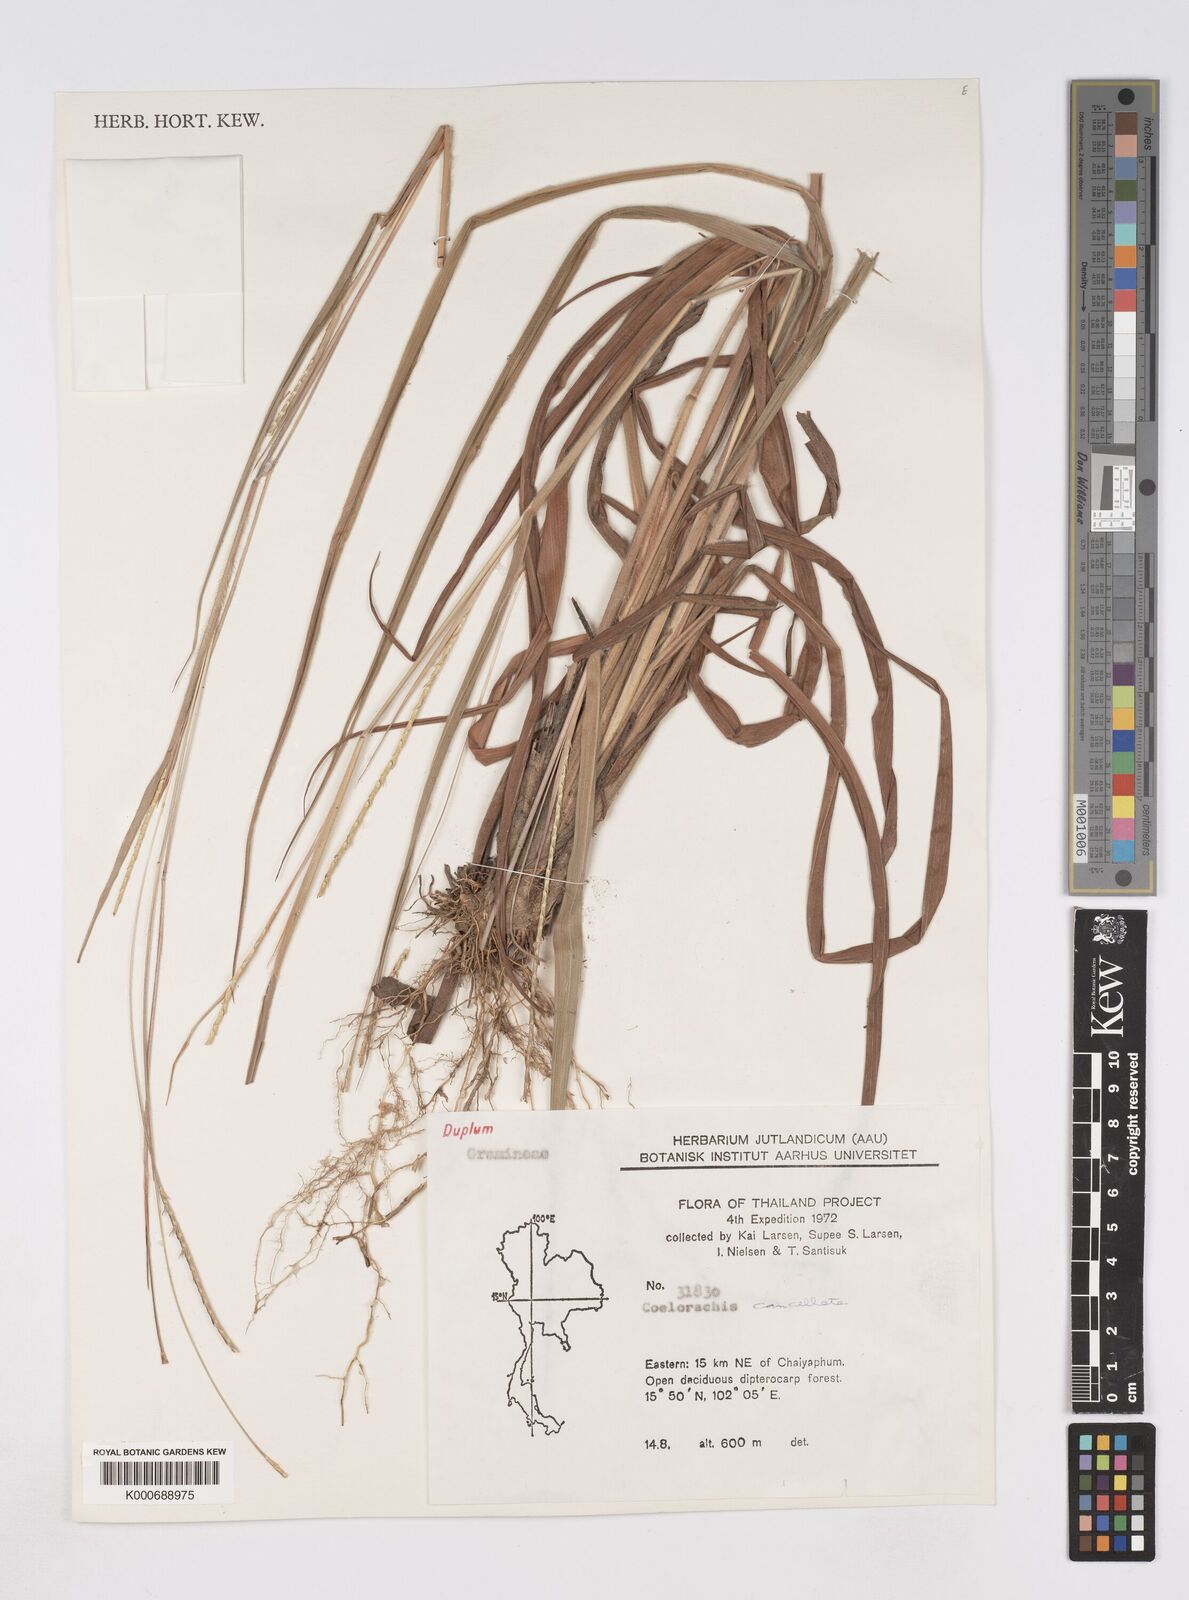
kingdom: Plantae
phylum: Tracheophyta
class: Liliopsida
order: Poales
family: Poaceae
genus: Rottboellia
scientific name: Rottboellia cancellata
